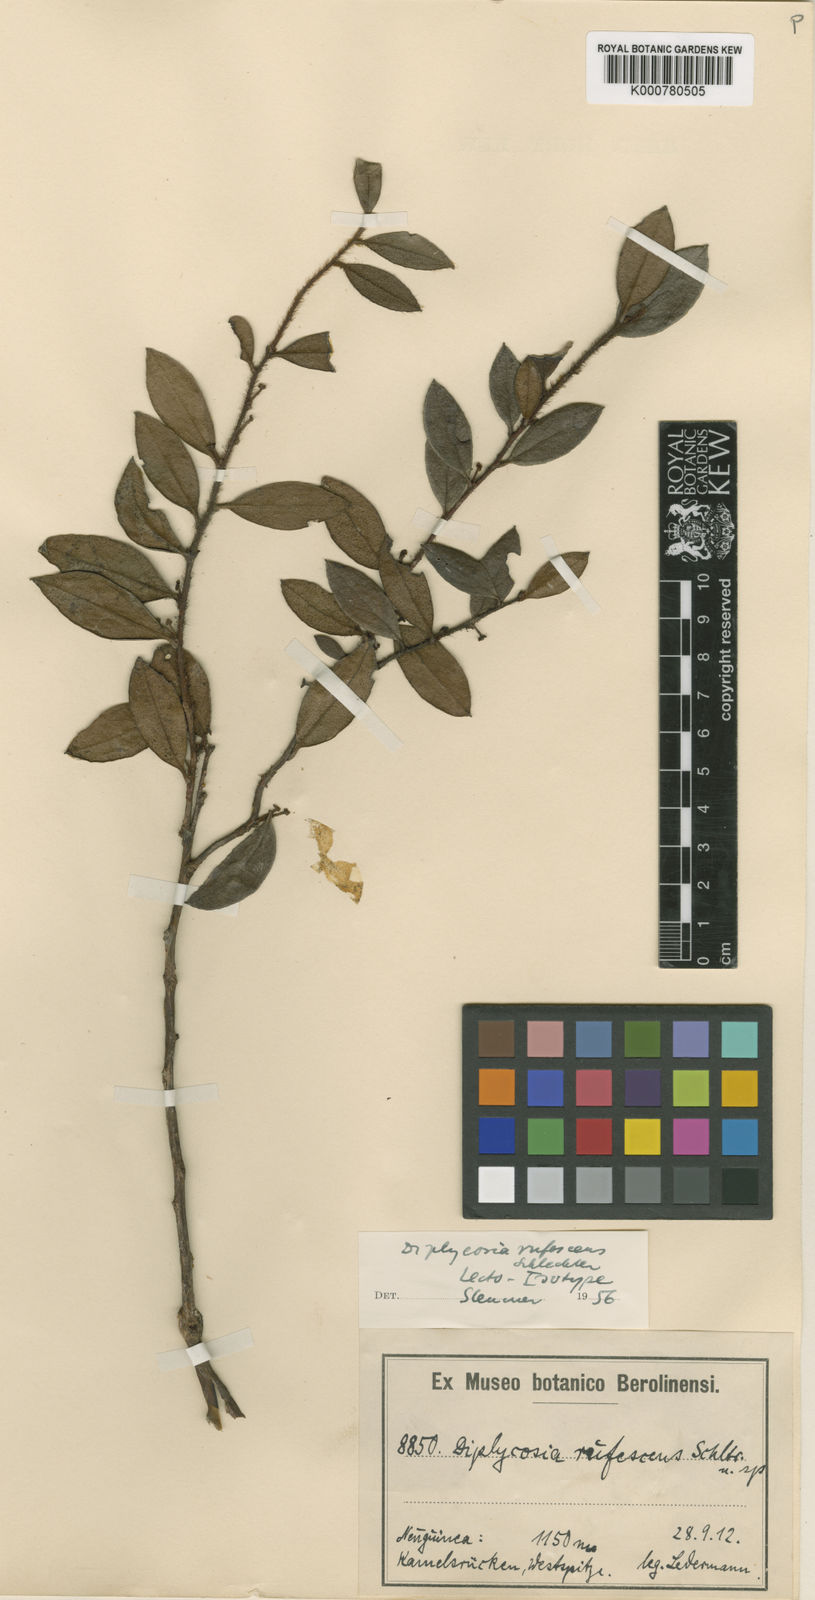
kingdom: Plantae
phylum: Tracheophyta
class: Magnoliopsida
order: Ericales
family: Ericaceae
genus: Gaultheria
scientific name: Gaultheria sepikensis
